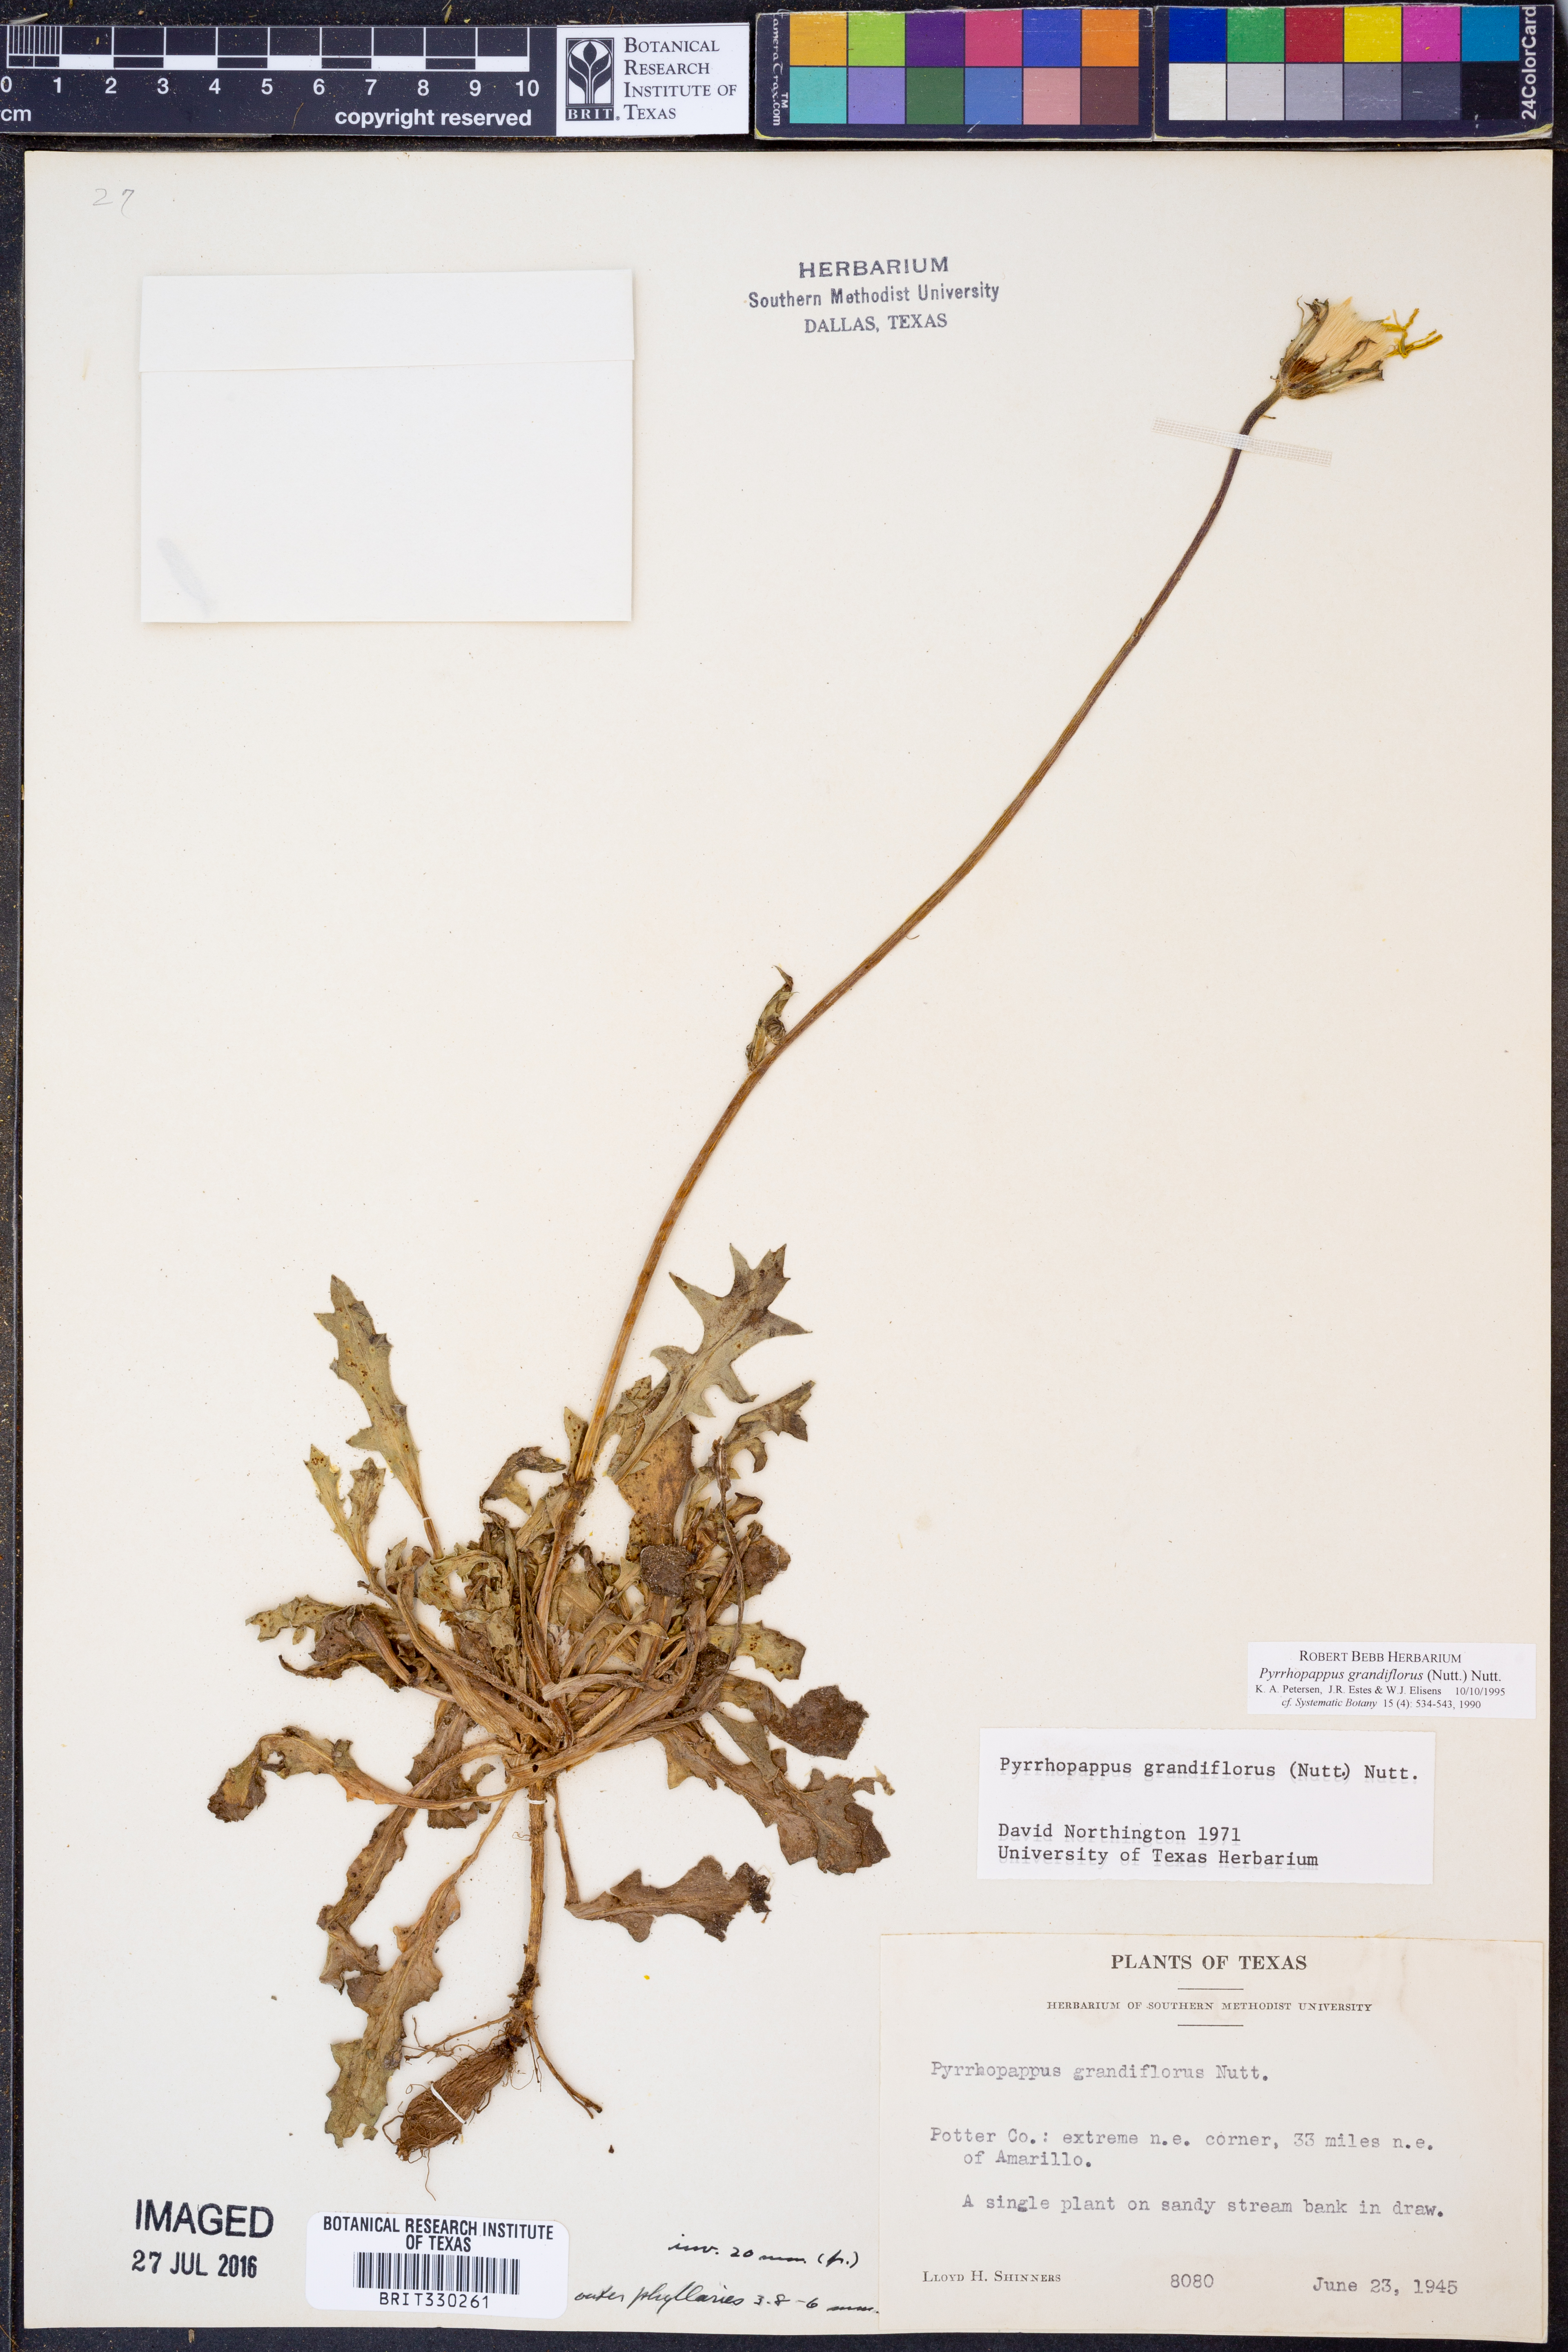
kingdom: Plantae
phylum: Tracheophyta
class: Magnoliopsida
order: Asterales
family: Asteraceae
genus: Pyrrhopappus
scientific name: Pyrrhopappus grandiflorus
